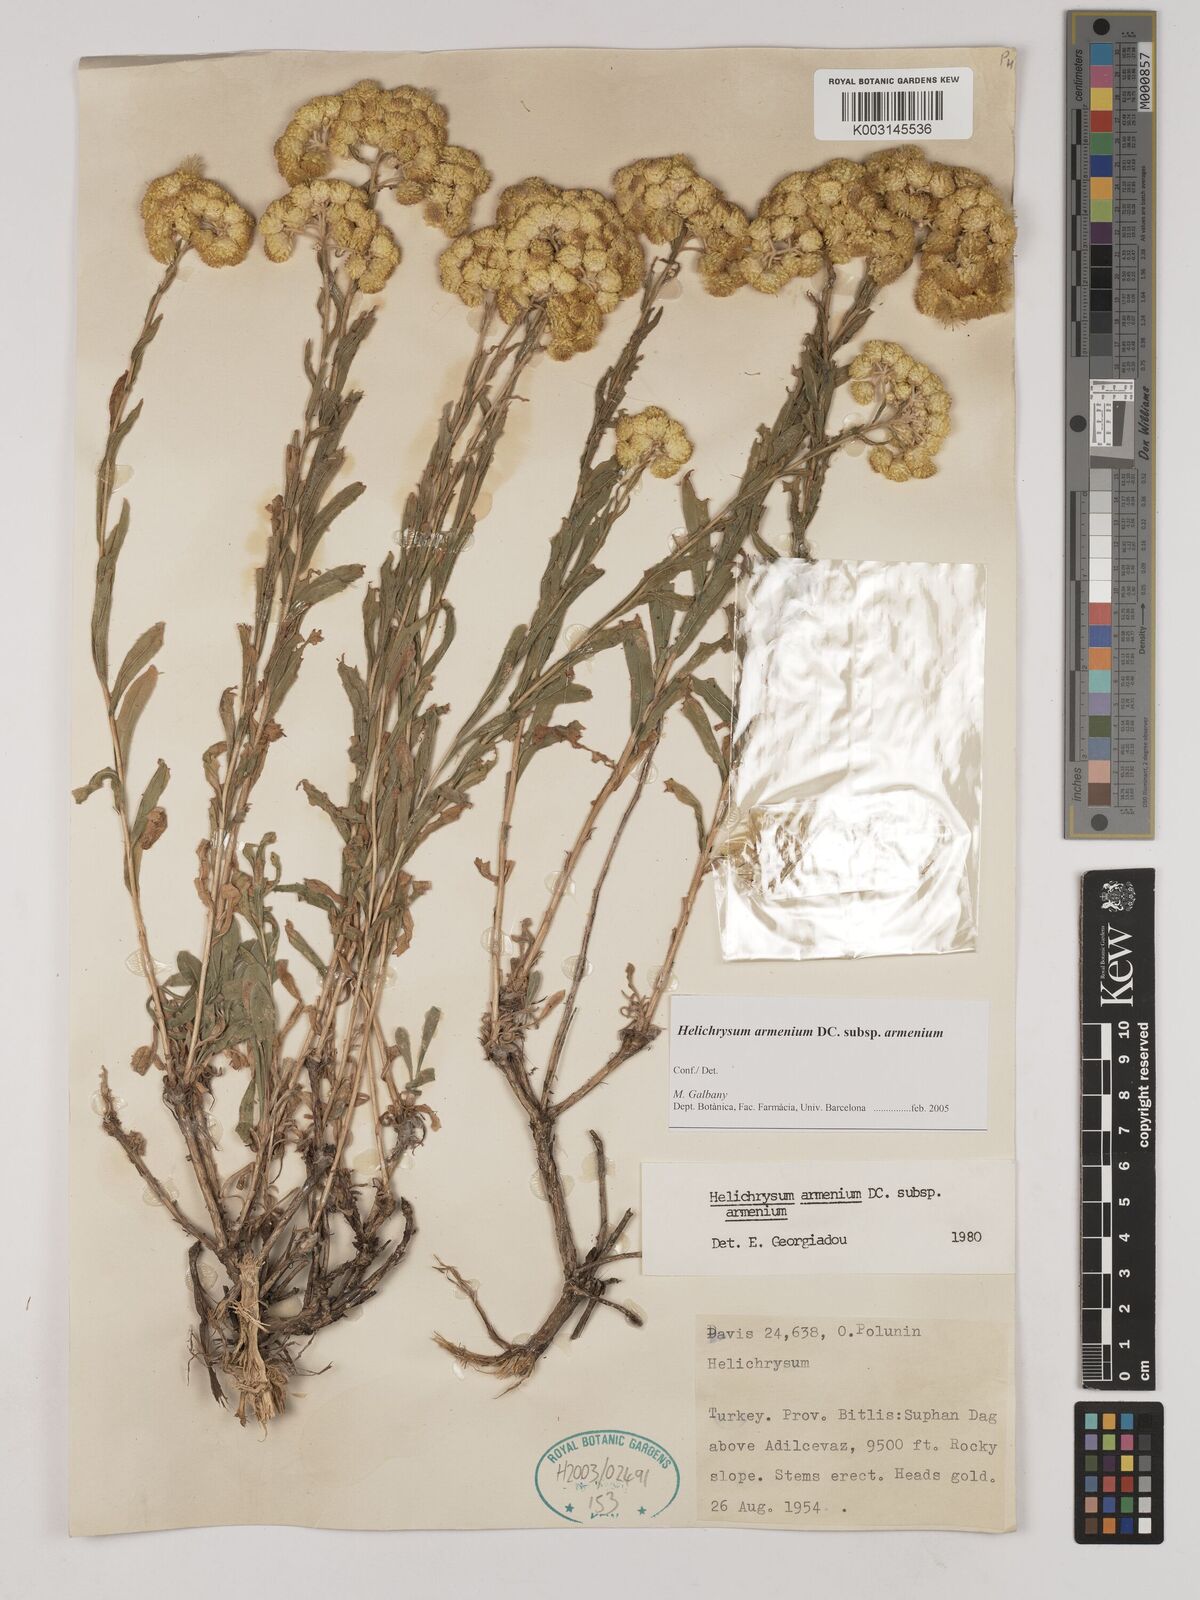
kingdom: Plantae
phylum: Tracheophyta
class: Magnoliopsida
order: Asterales
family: Asteraceae
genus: Helichrysum
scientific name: Helichrysum armenium
